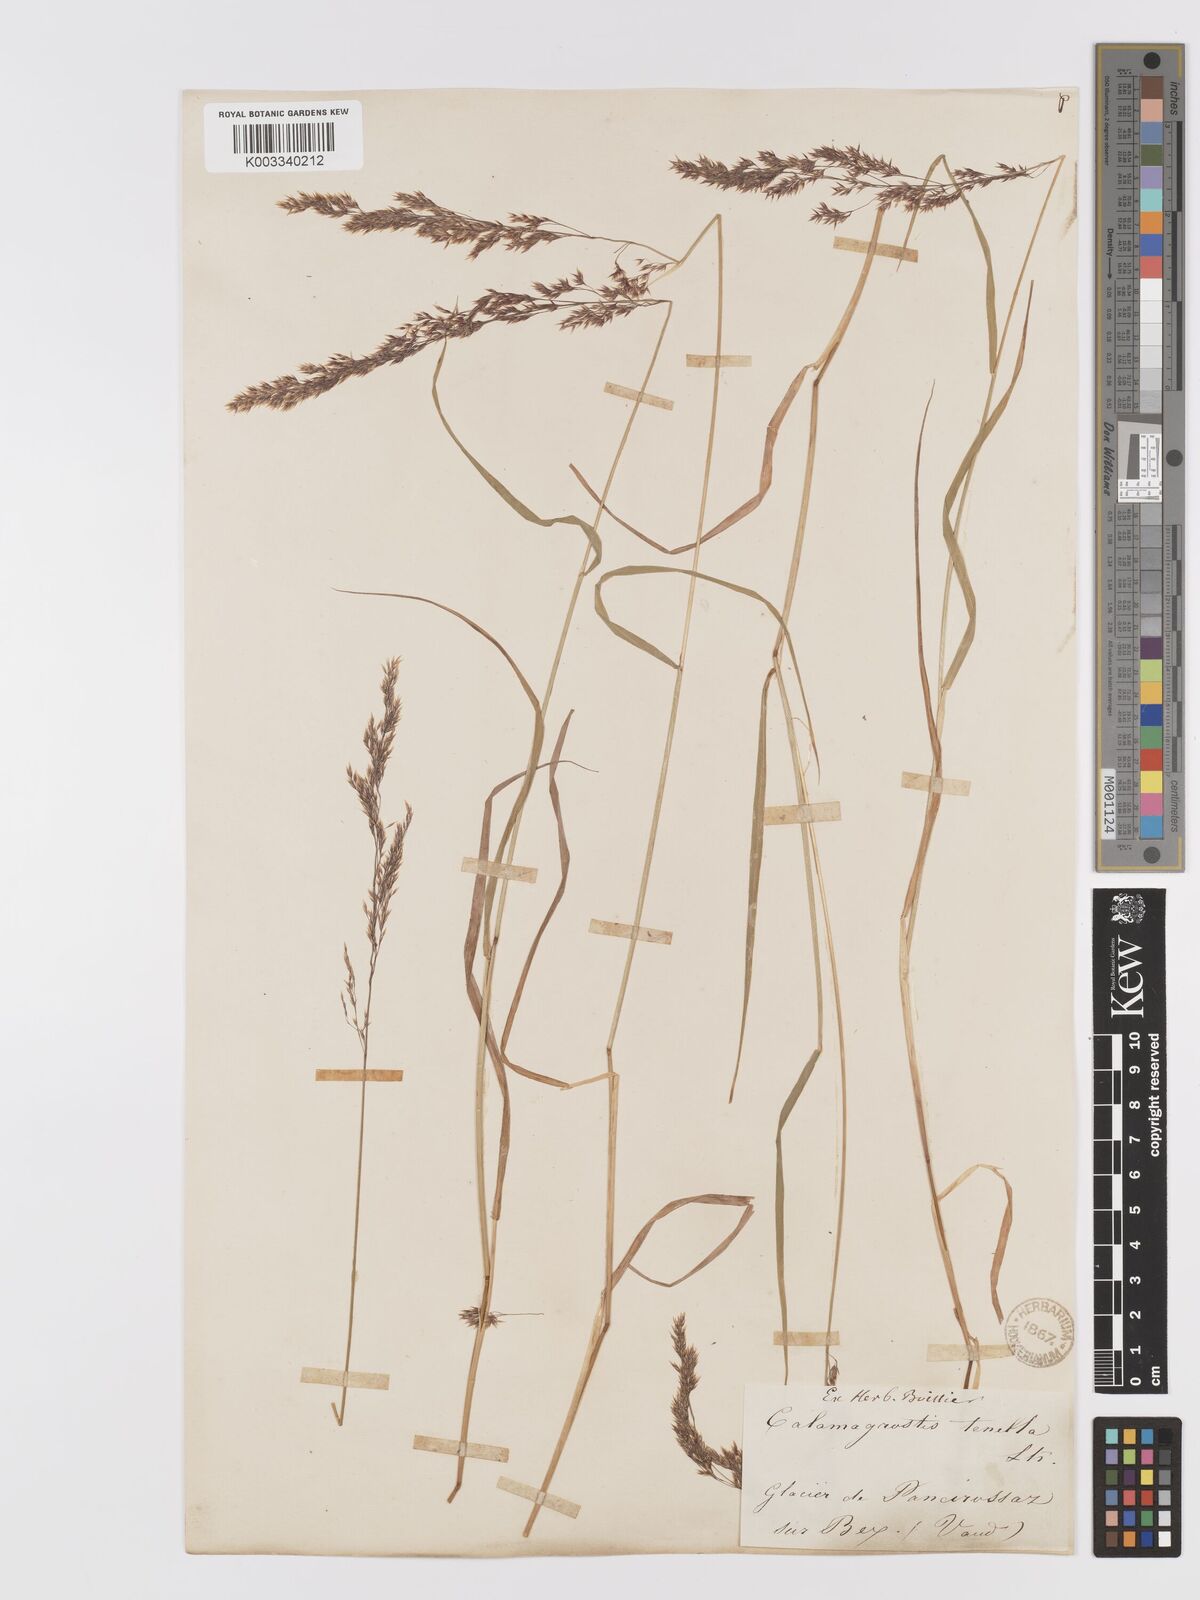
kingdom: Plantae
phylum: Tracheophyta
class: Liliopsida
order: Poales
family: Poaceae
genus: Agrostis
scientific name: Agrostis schraderiana
